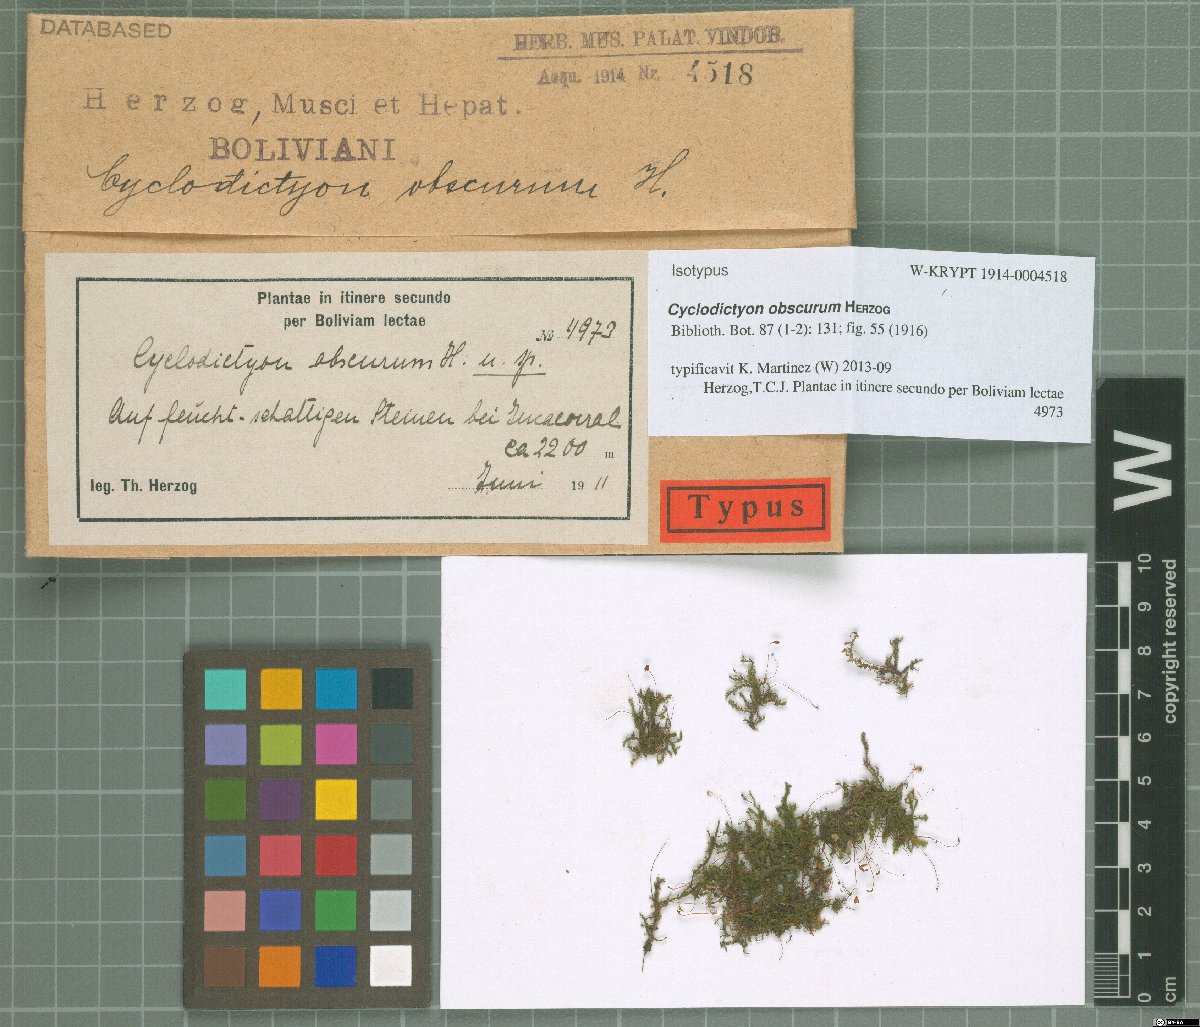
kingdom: Plantae
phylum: Bryophyta
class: Bryopsida
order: Hookeriales
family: Pilotrichaceae
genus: Cyclodictyon
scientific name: Cyclodictyon obscurum
